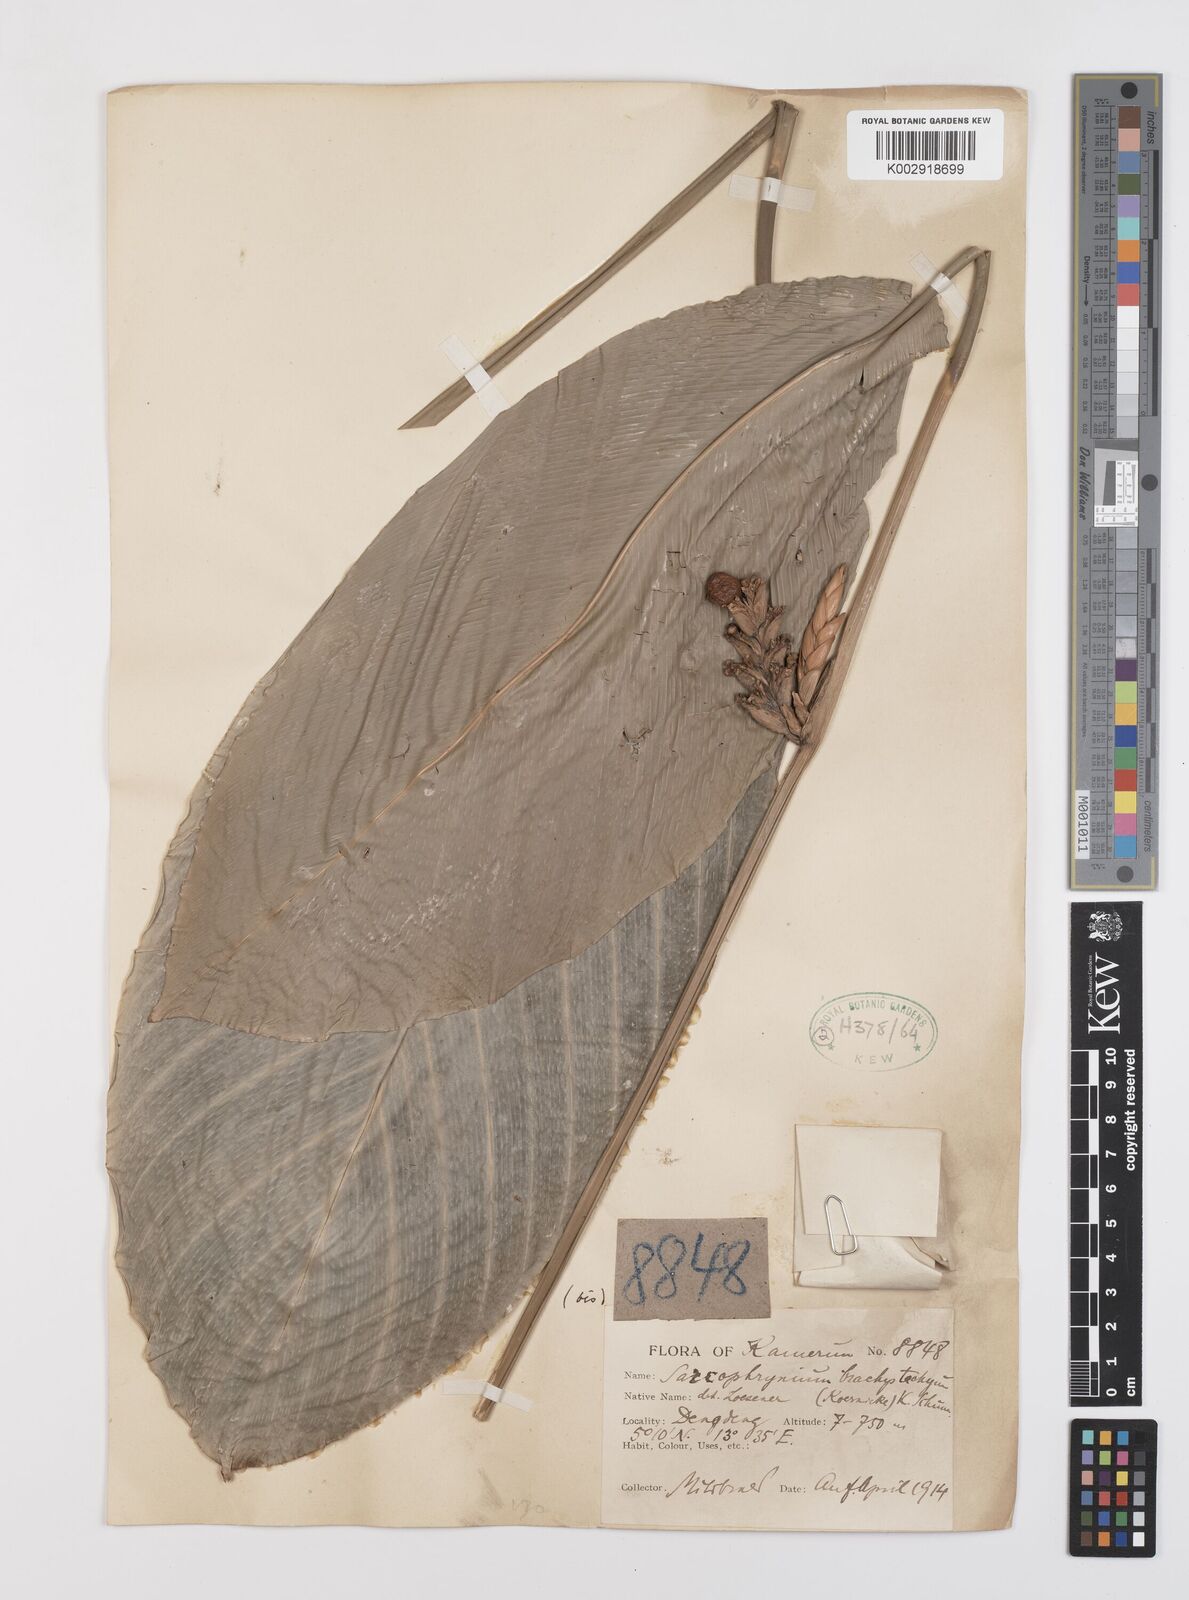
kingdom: Plantae
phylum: Tracheophyta
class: Liliopsida
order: Zingiberales
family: Marantaceae
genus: Sarcophrynium
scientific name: Sarcophrynium brachystachyum
